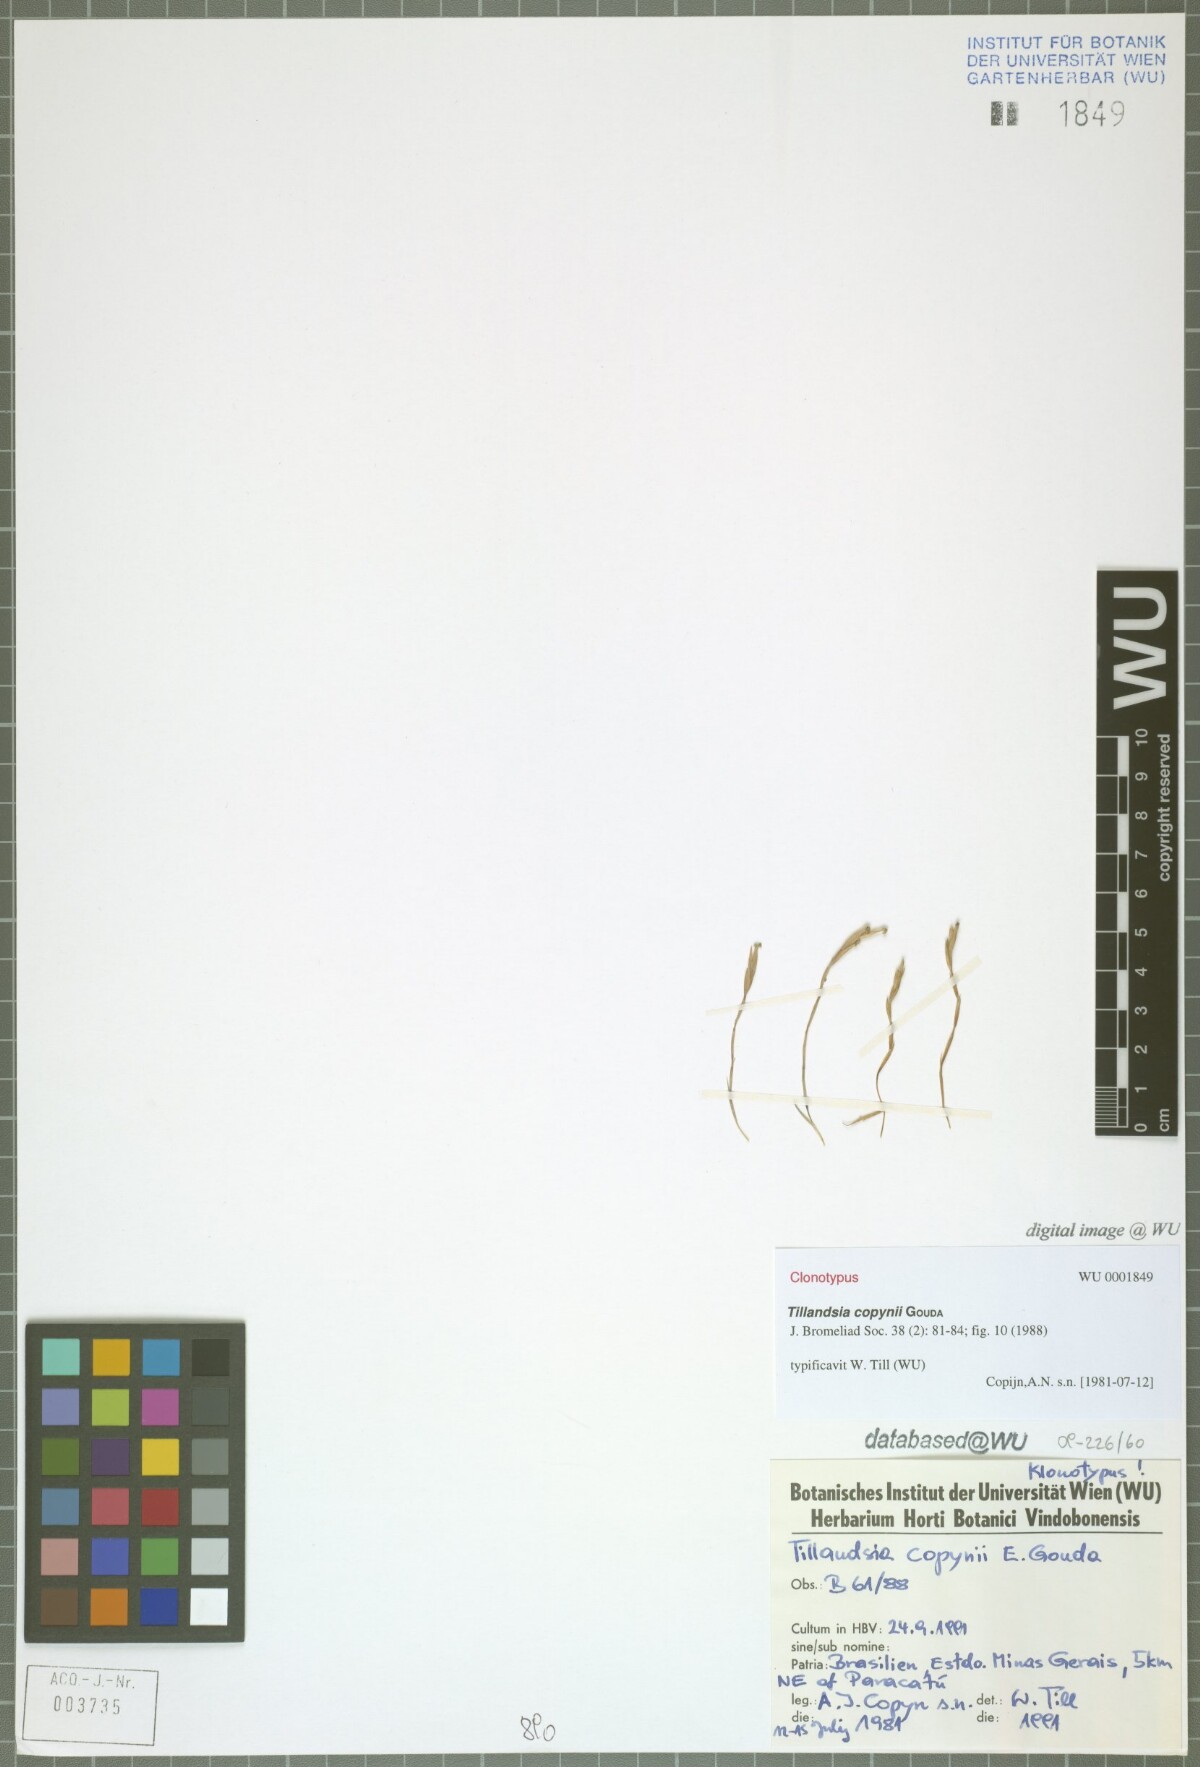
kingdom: Plantae
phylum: Tracheophyta
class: Liliopsida
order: Poales
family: Bromeliaceae
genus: Tillandsia
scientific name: Tillandsia copynii
